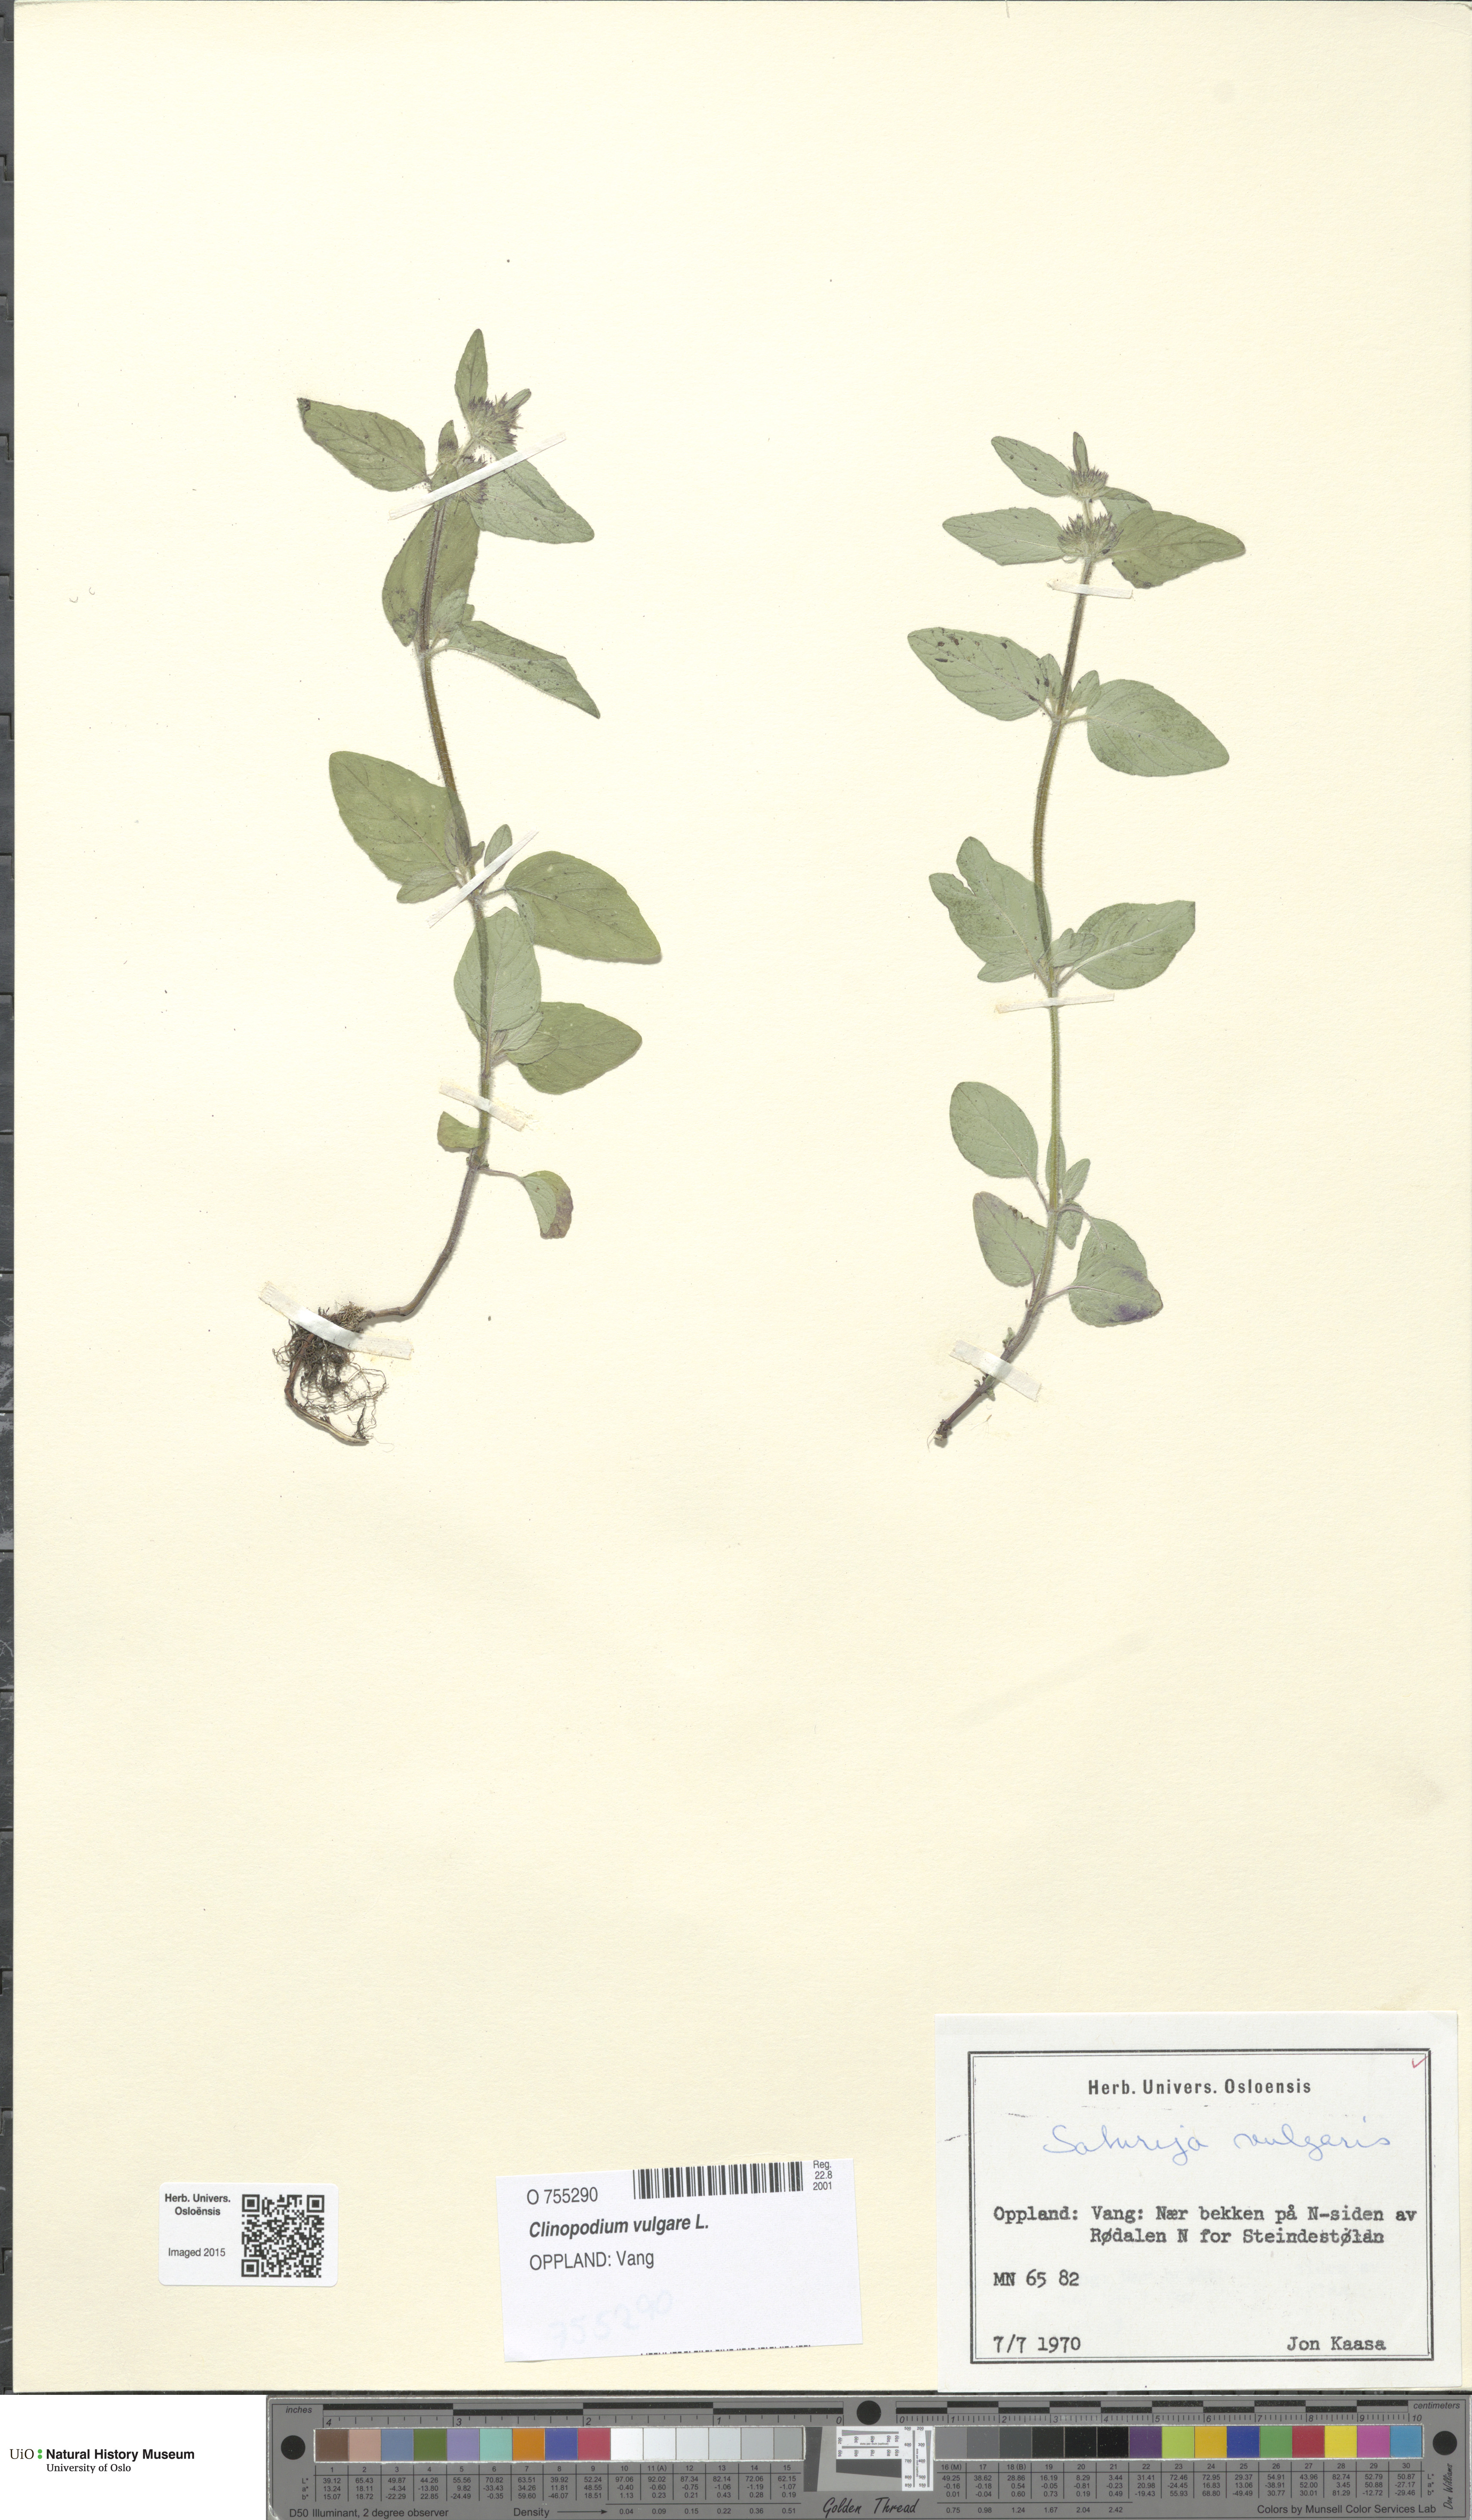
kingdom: Plantae
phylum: Tracheophyta
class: Magnoliopsida
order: Lamiales
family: Lamiaceae
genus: Clinopodium
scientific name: Clinopodium vulgare
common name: Wild basil
